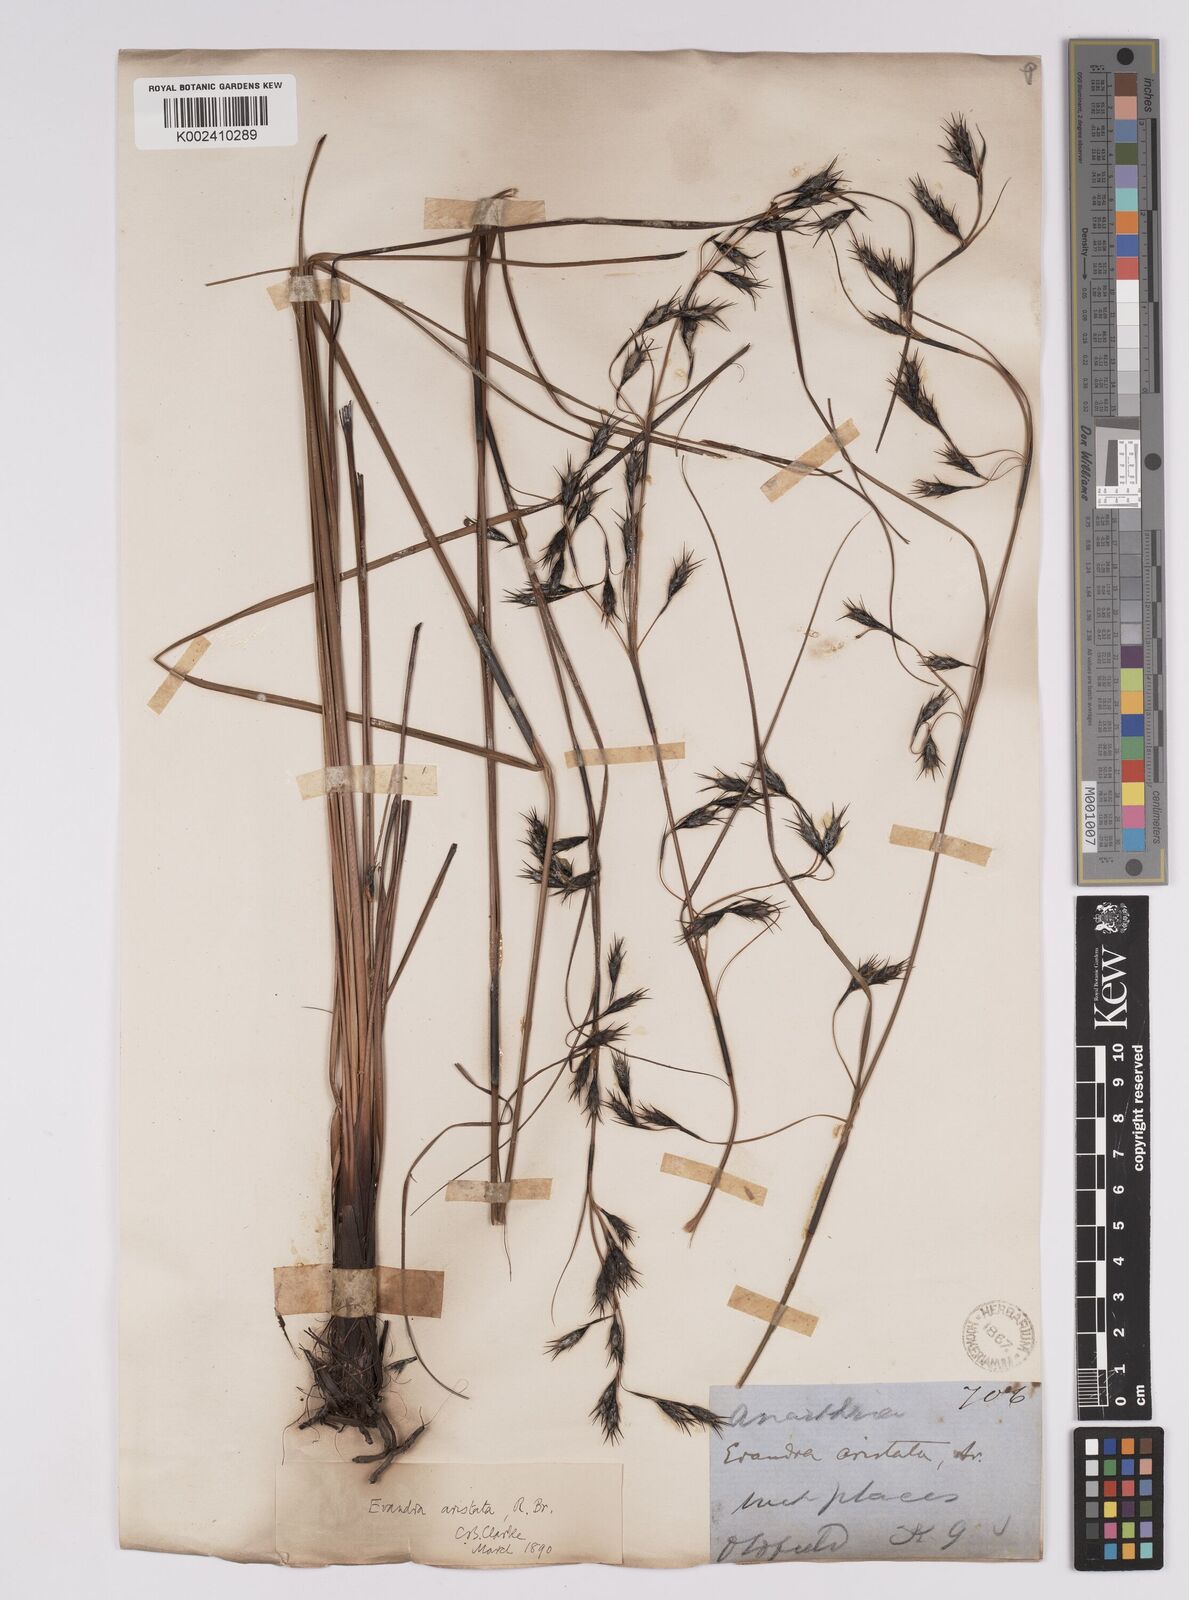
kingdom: Plantae
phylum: Tracheophyta
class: Liliopsida
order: Poales
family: Cyperaceae
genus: Evandra
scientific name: Evandra aristata
